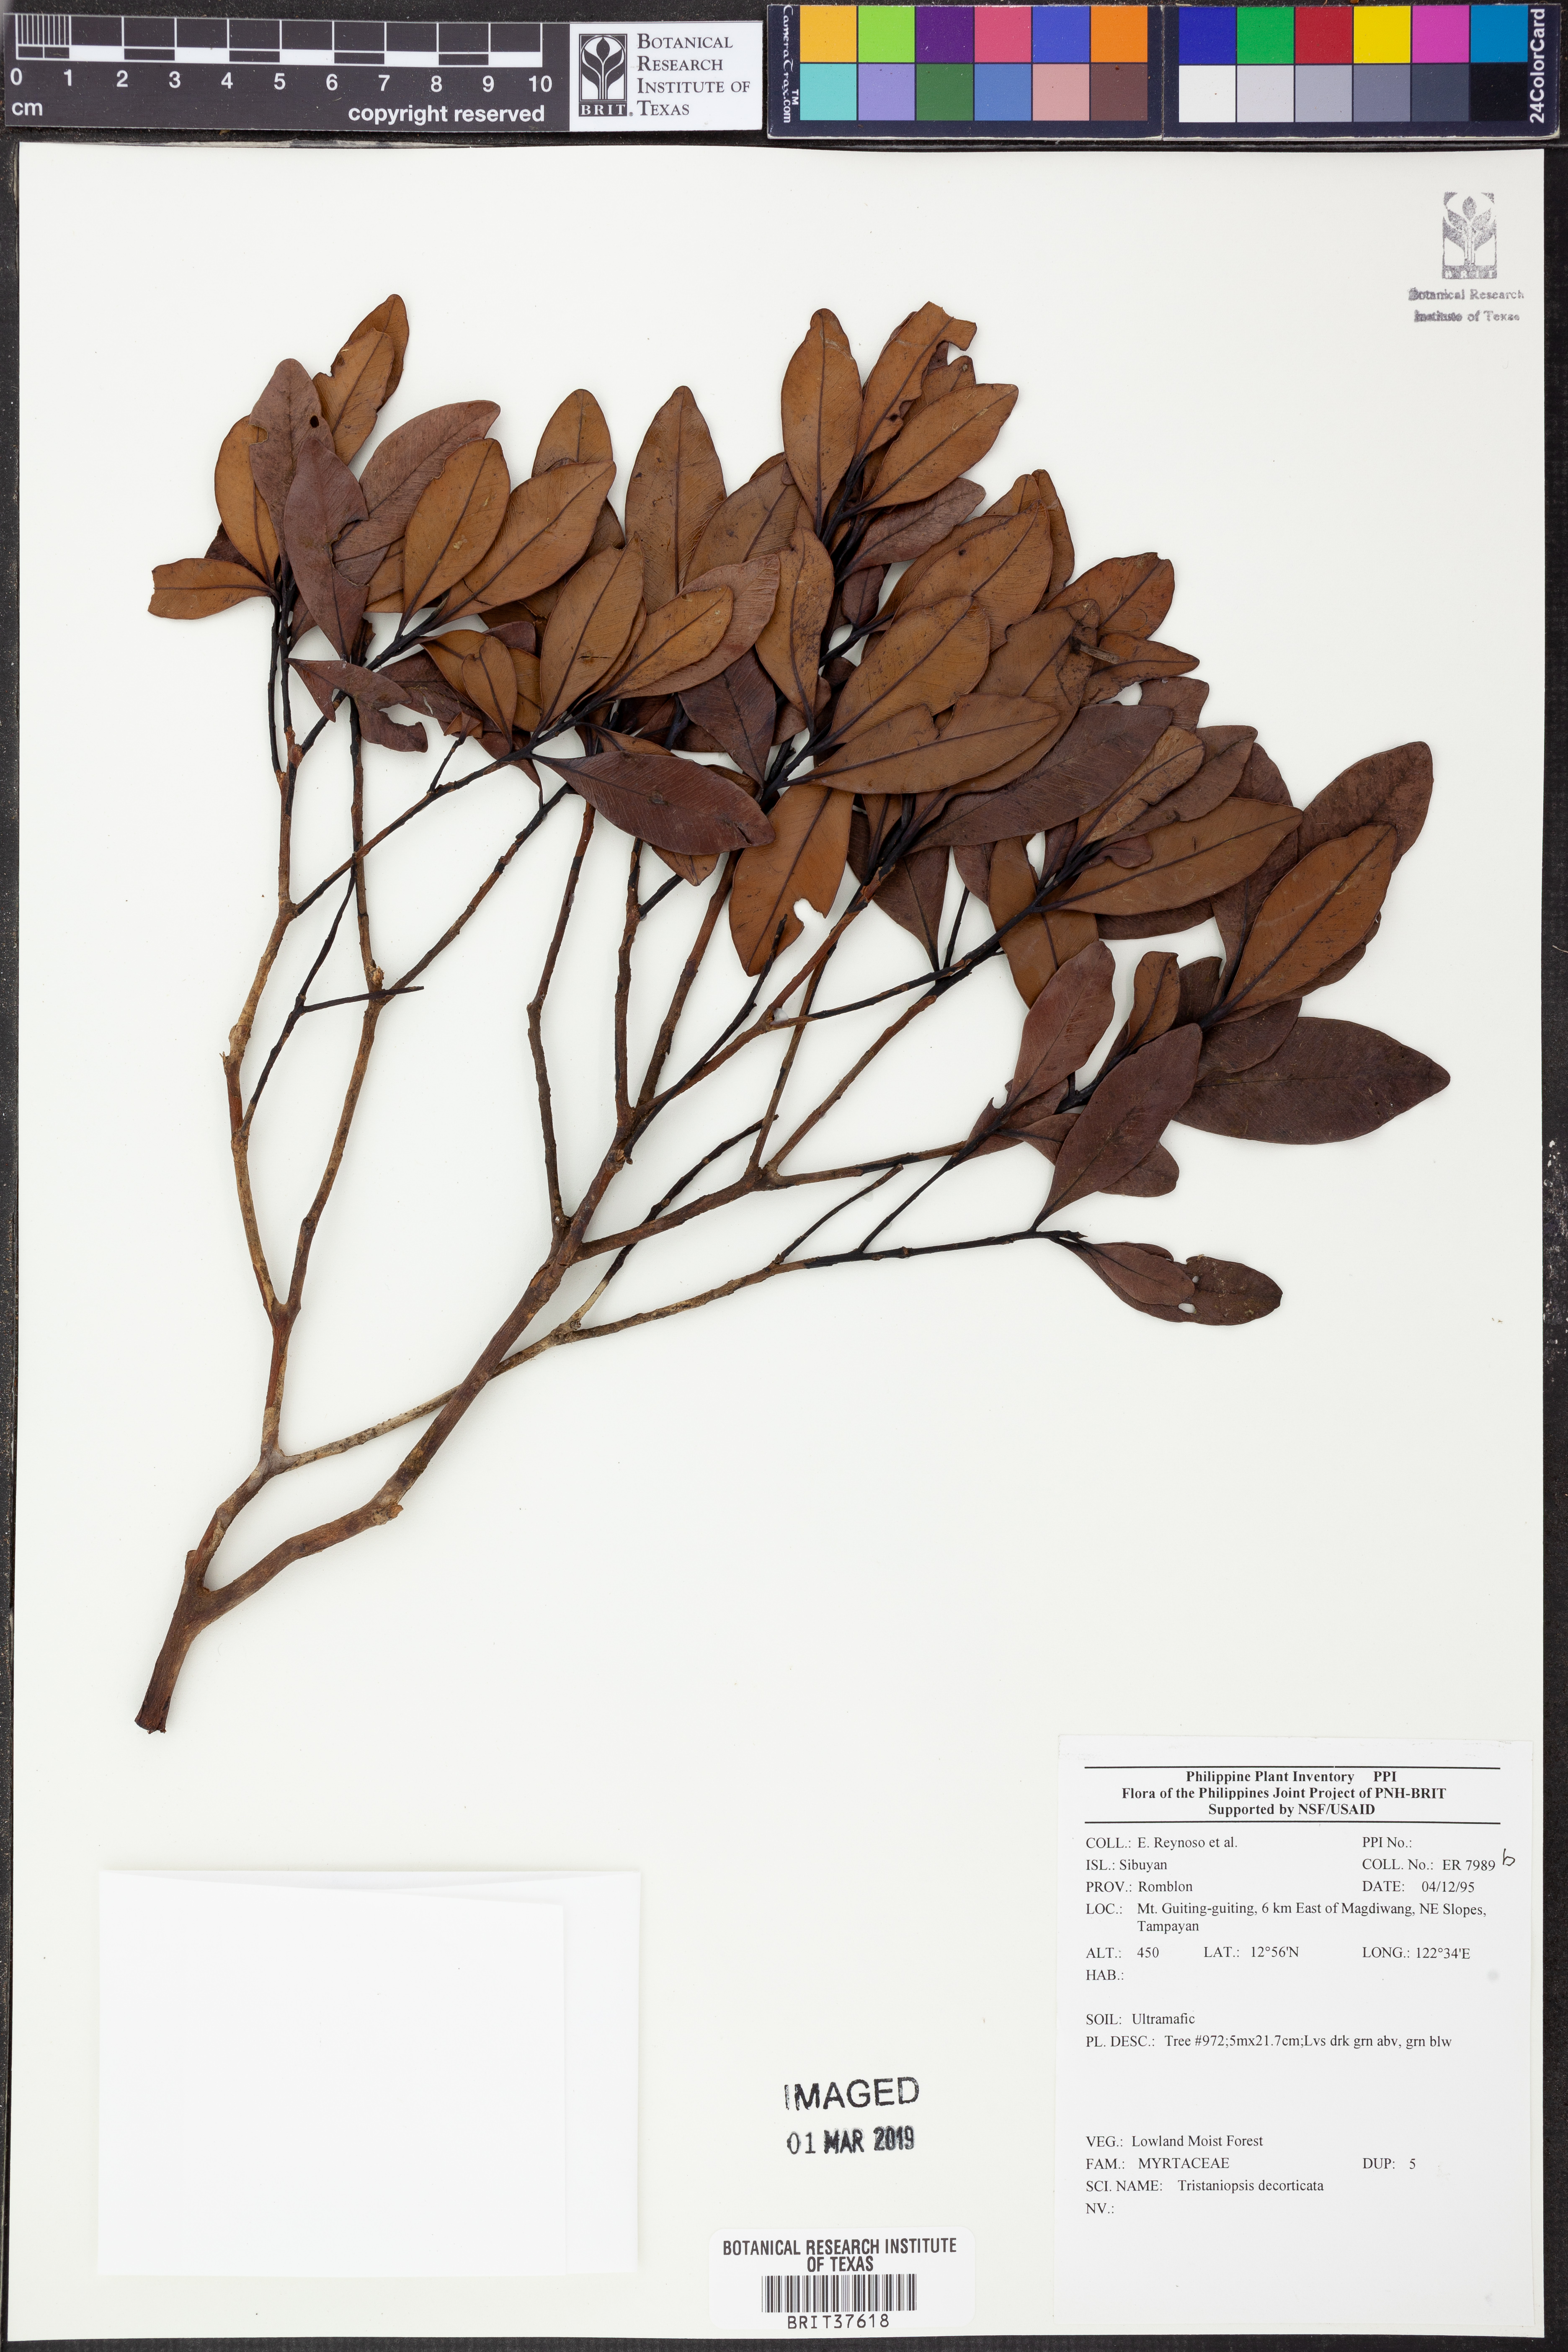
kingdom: Plantae
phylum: Tracheophyta
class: Magnoliopsida
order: Myrtales
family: Myrtaceae
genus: Tristaniopsis
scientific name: Tristaniopsis decorticata
